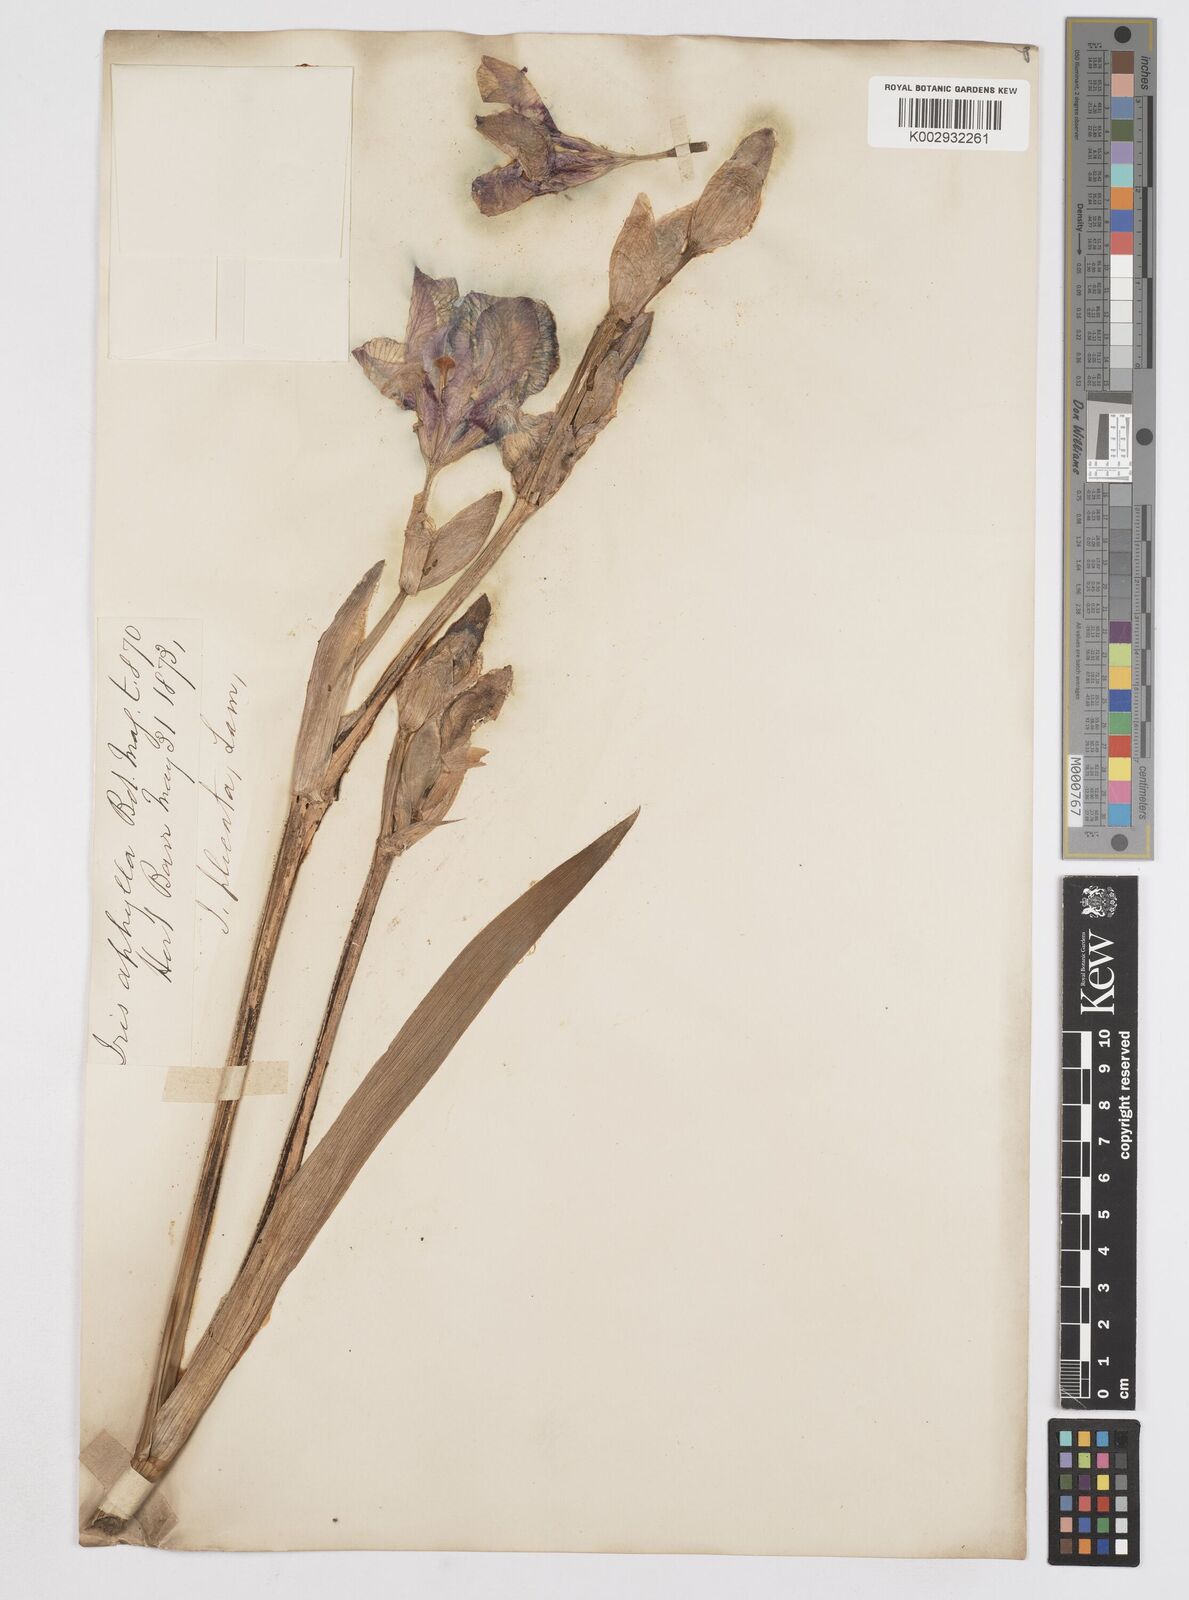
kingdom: Plantae
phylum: Tracheophyta
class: Liliopsida
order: Asparagales
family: Iridaceae
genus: Iris
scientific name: Iris pallida
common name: Sweet iris
